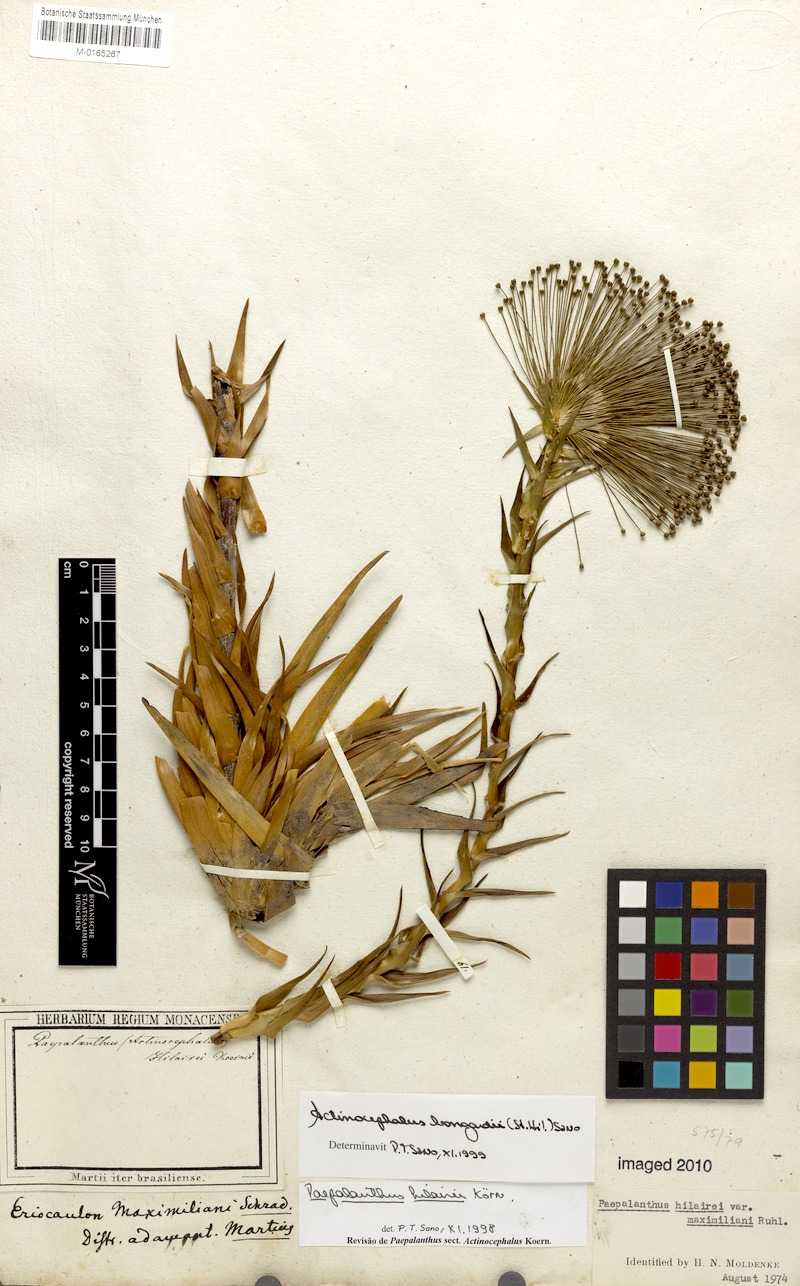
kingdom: Plantae
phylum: Tracheophyta
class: Liliopsida
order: Poales
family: Eriocaulaceae
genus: Paepalanthus
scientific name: Paepalanthus hilairei
